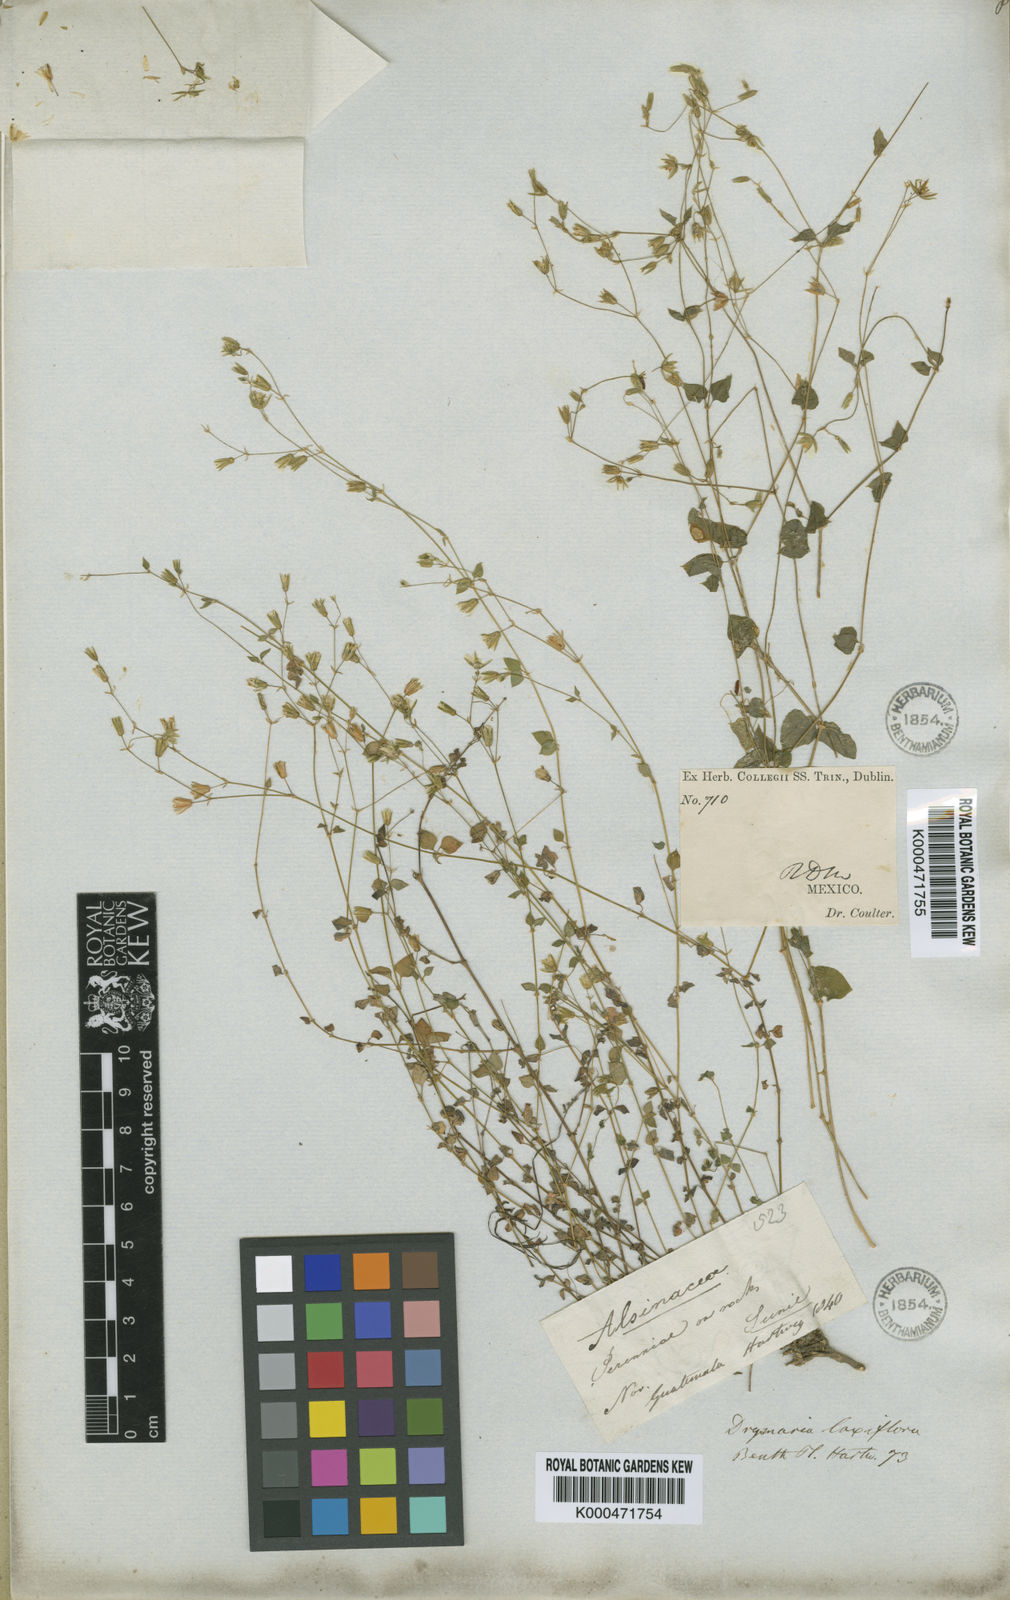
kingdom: Plantae
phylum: Tracheophyta
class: Magnoliopsida
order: Caryophyllales
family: Caryophyllaceae
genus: Drymaria
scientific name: Drymaria laxiflora
